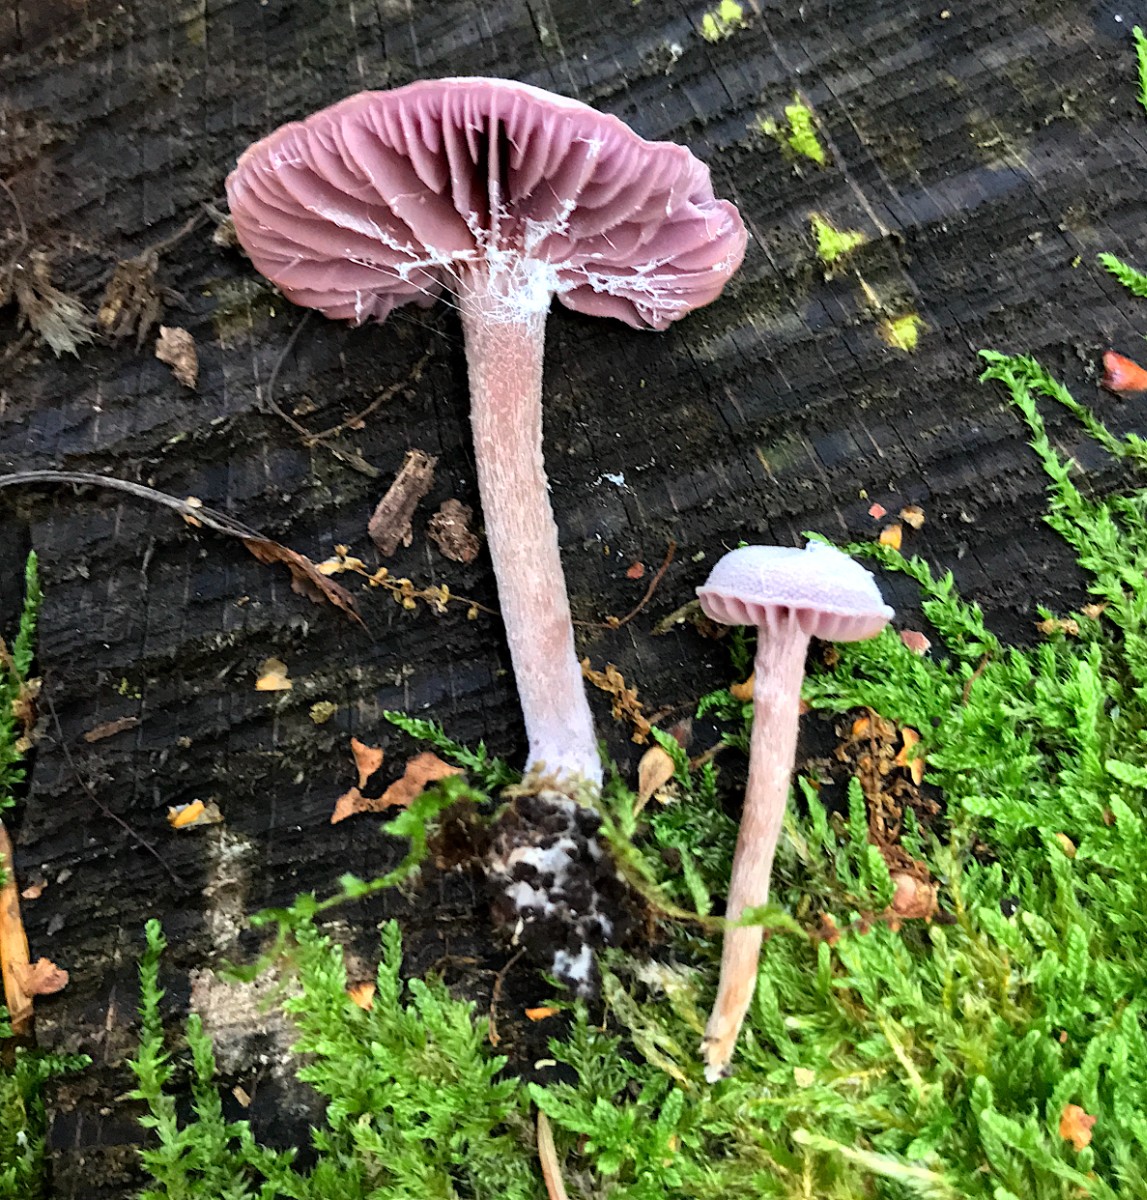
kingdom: Fungi
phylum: Basidiomycota
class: Agaricomycetes
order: Agaricales
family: Hydnangiaceae
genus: Laccaria
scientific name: Laccaria amethystina
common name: violet ametysthat
